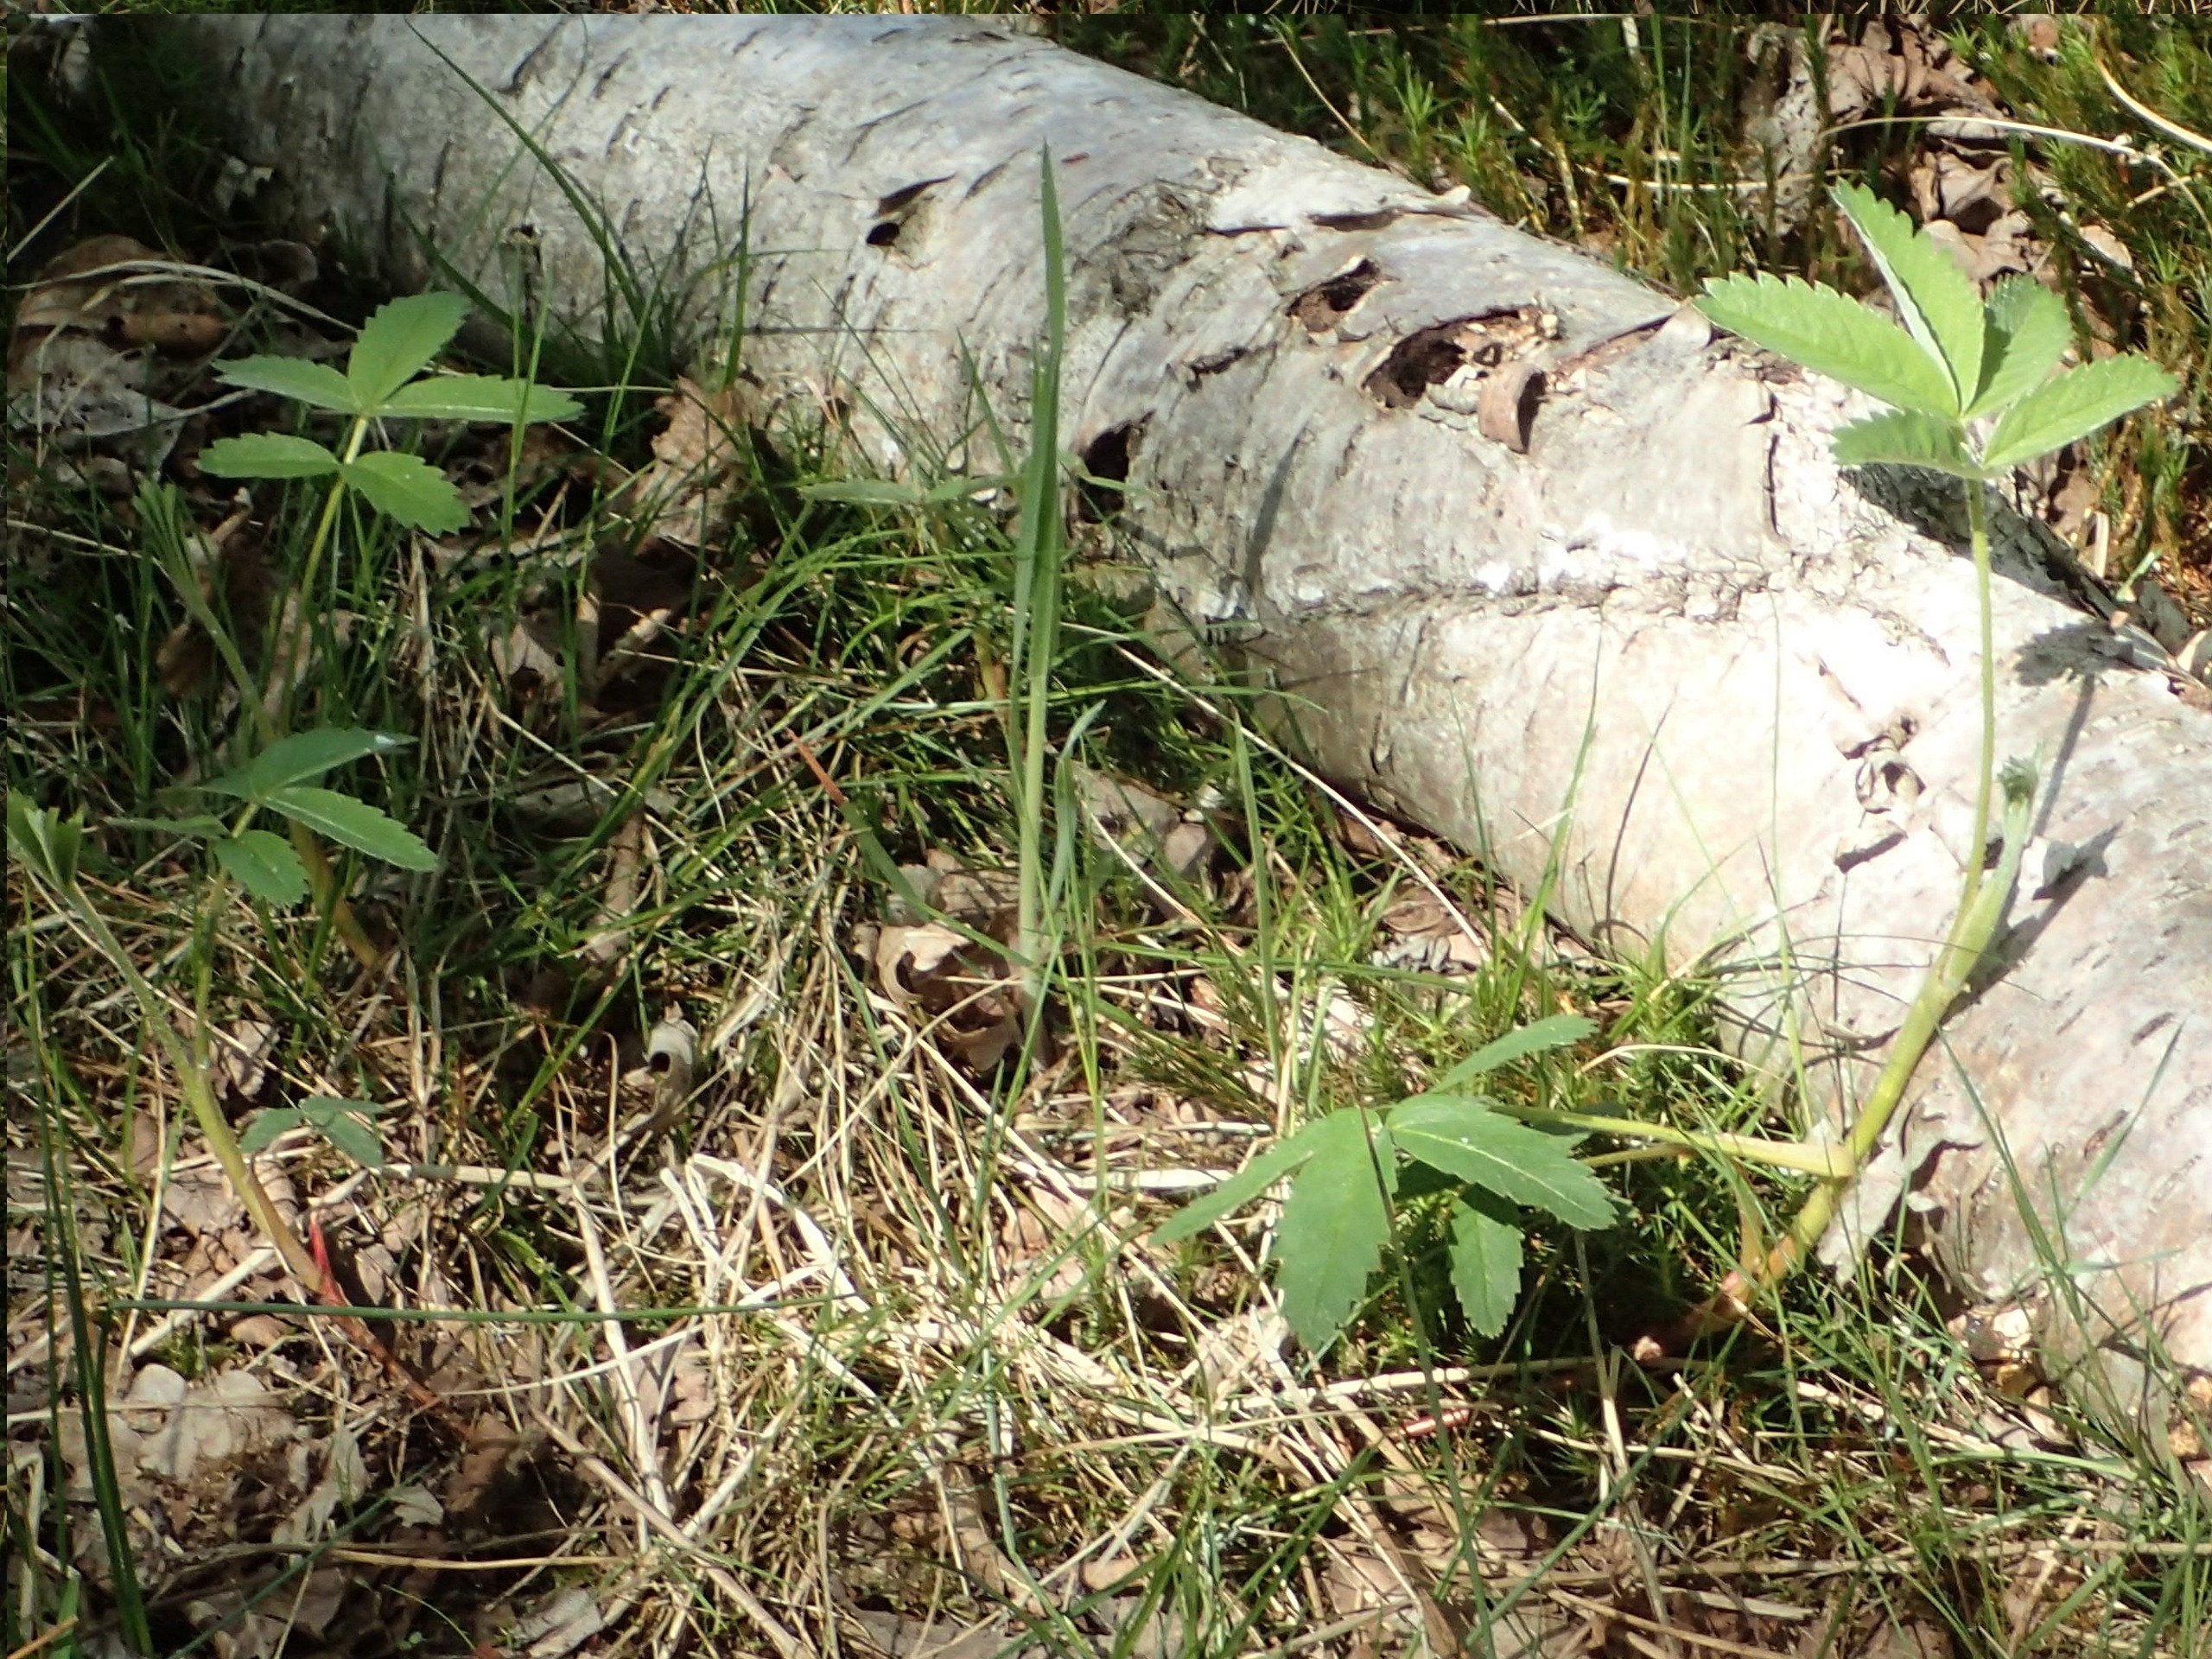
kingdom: Plantae
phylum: Tracheophyta
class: Magnoliopsida
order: Rosales
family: Rosaceae
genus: Comarum
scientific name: Comarum palustre
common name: Kragefod
